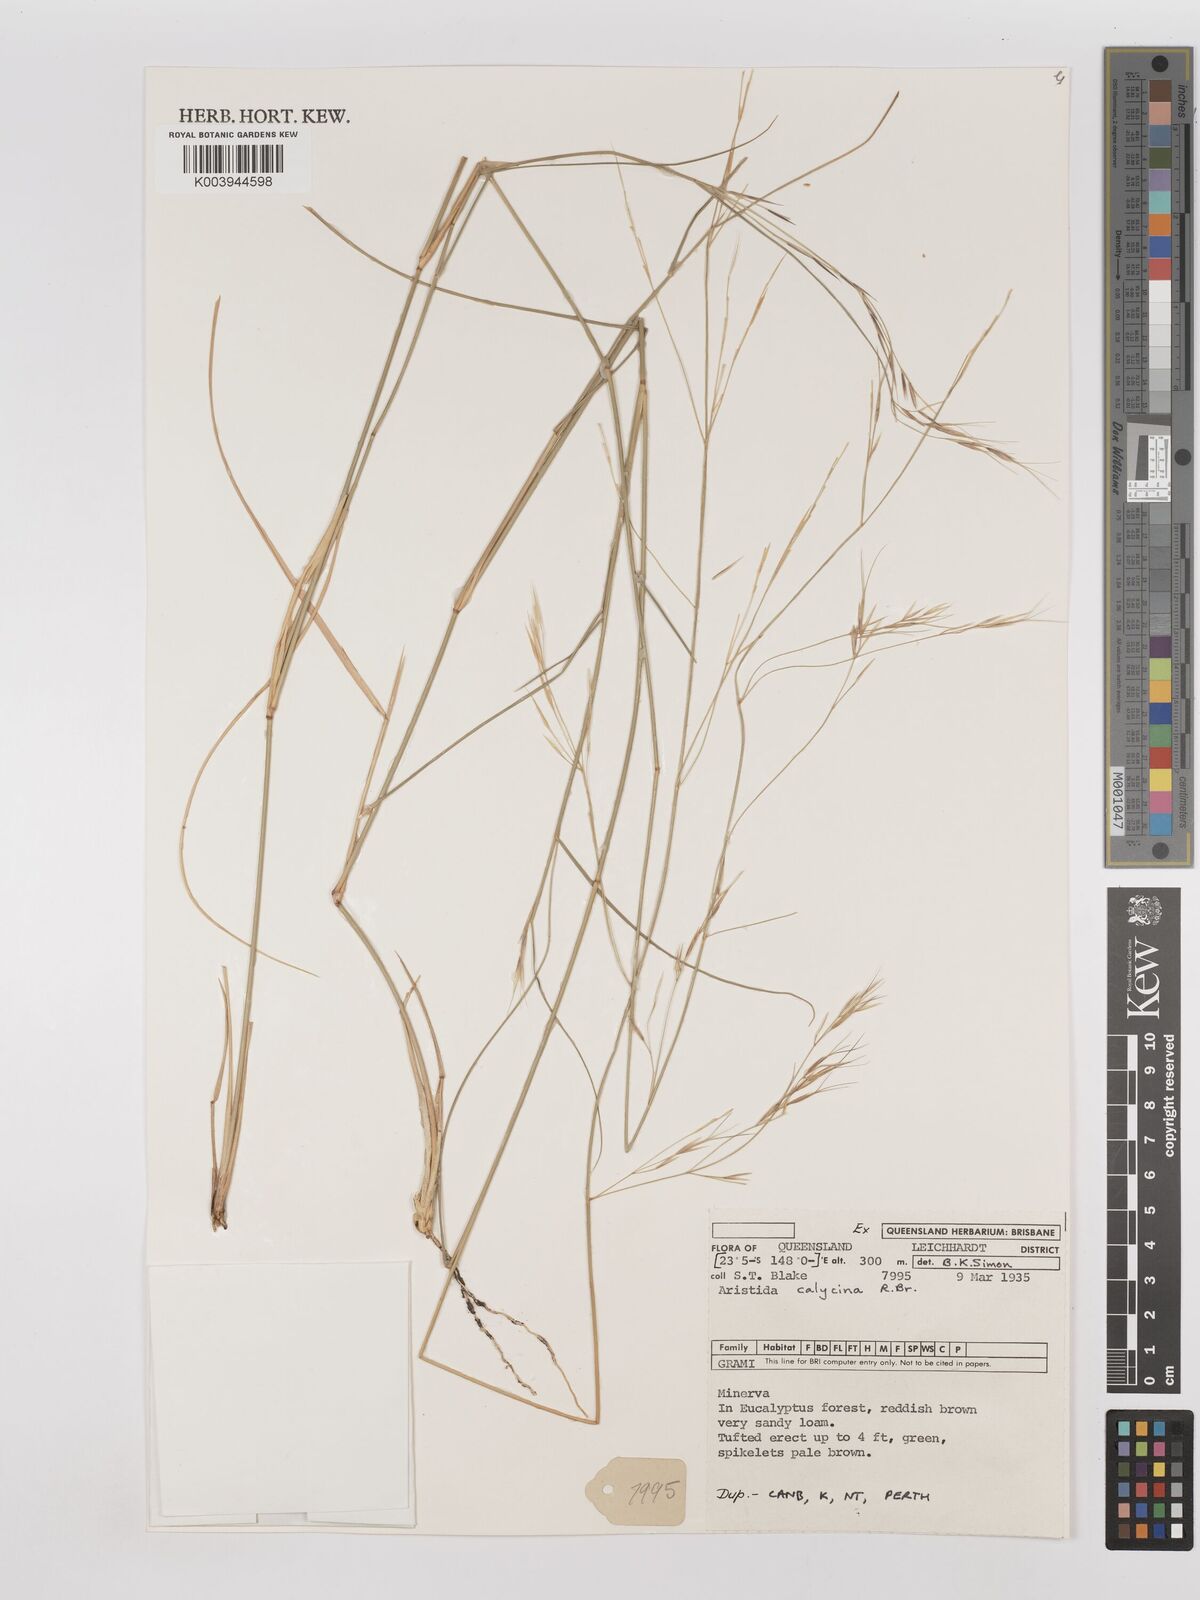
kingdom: Plantae
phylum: Tracheophyta
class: Liliopsida
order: Poales
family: Poaceae
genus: Aristida
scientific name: Aristida calycina
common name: Dark wire grass
